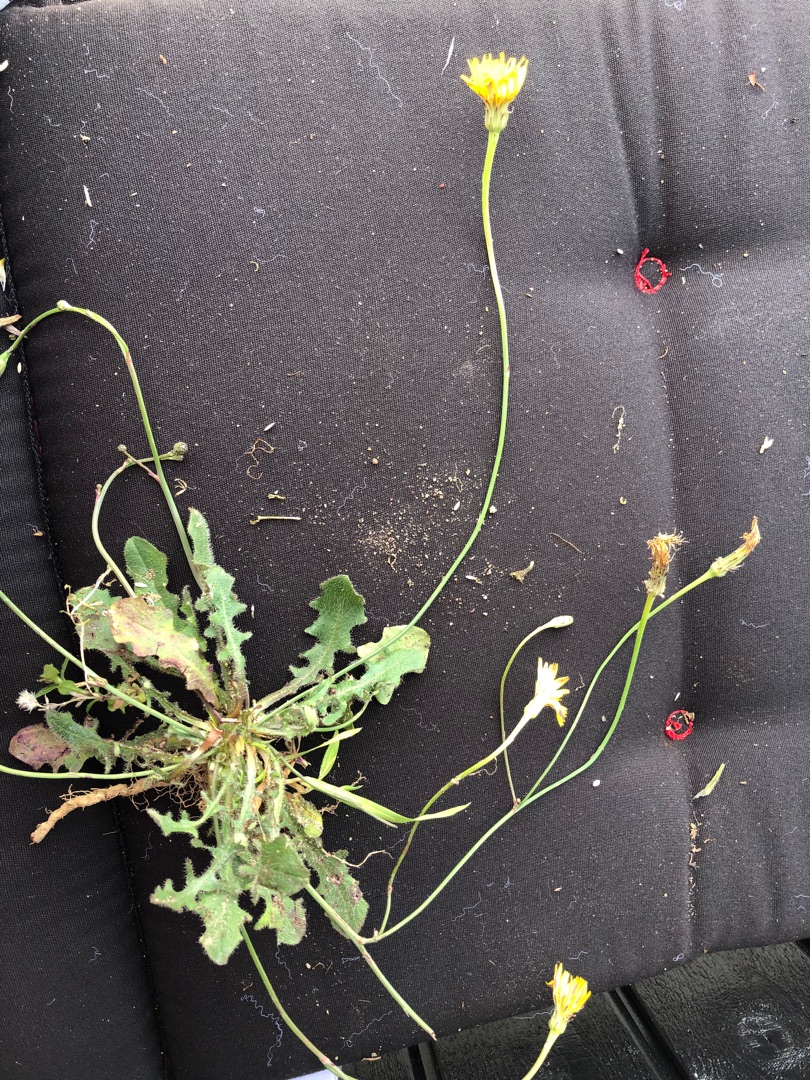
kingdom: Plantae
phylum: Tracheophyta
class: Magnoliopsida
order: Asterales
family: Asteraceae
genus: Hypochaeris
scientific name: Hypochaeris radicata
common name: Almindelig kongepen
